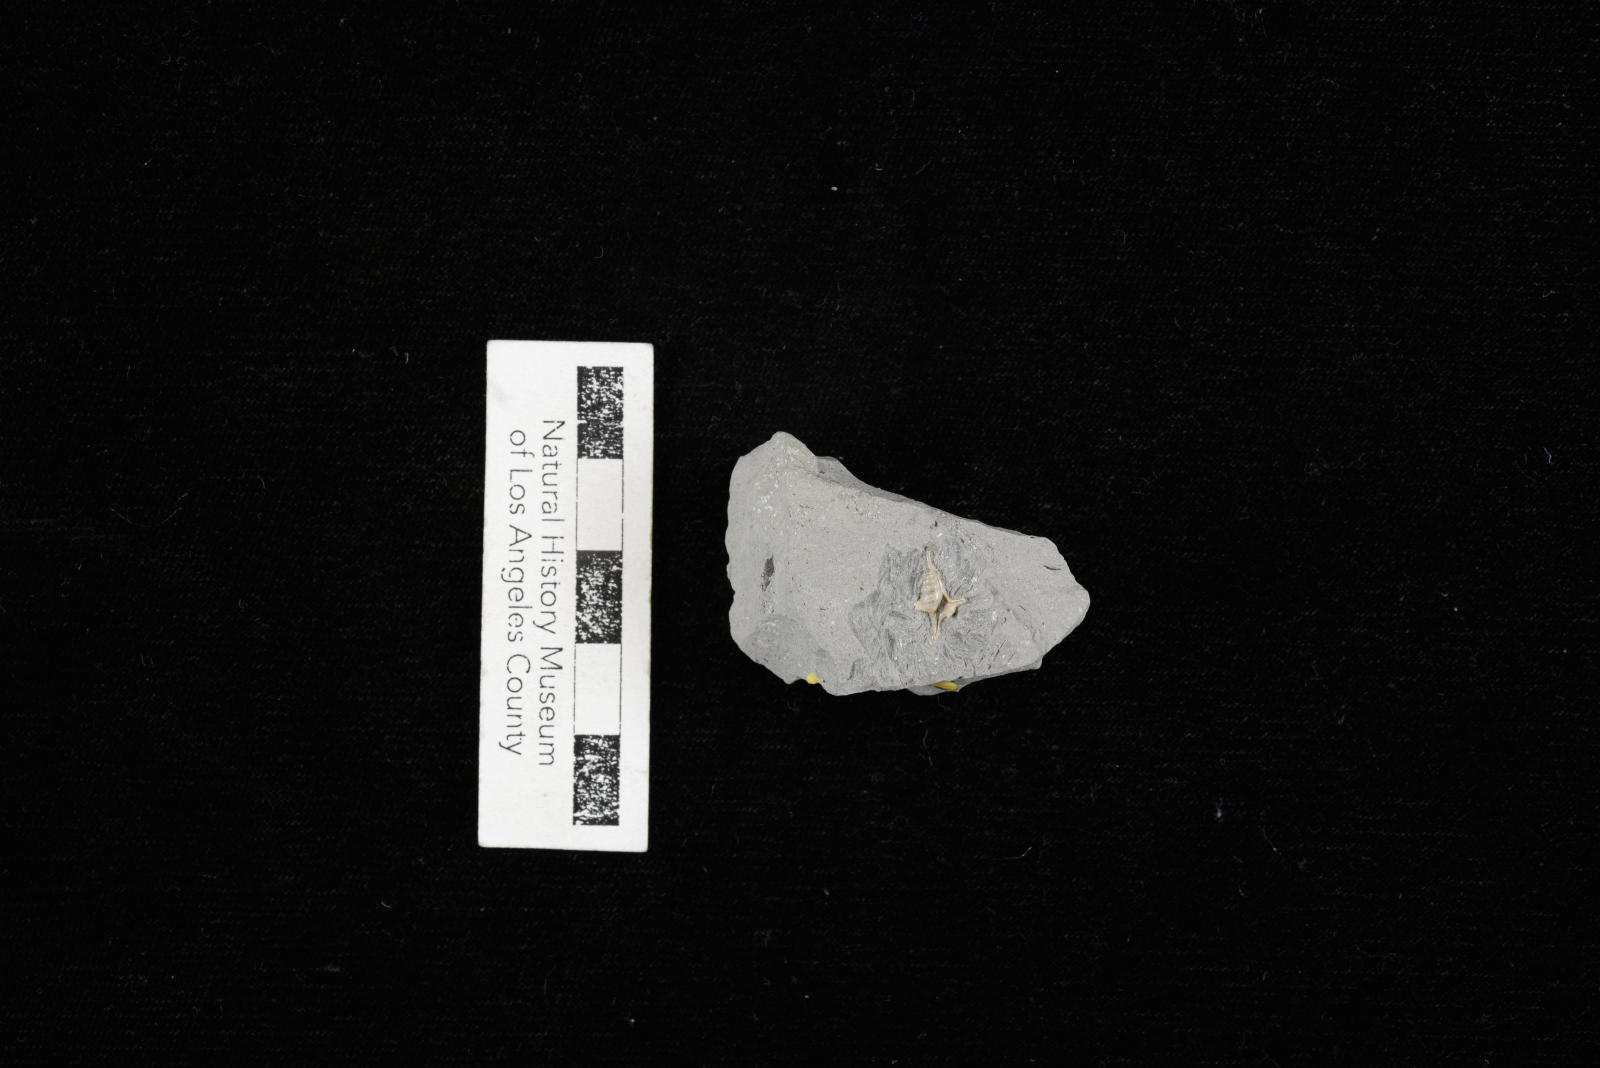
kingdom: Animalia
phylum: Mollusca
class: Gastropoda
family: Turritellidae
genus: Turritella
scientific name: Turritella chicoensis
